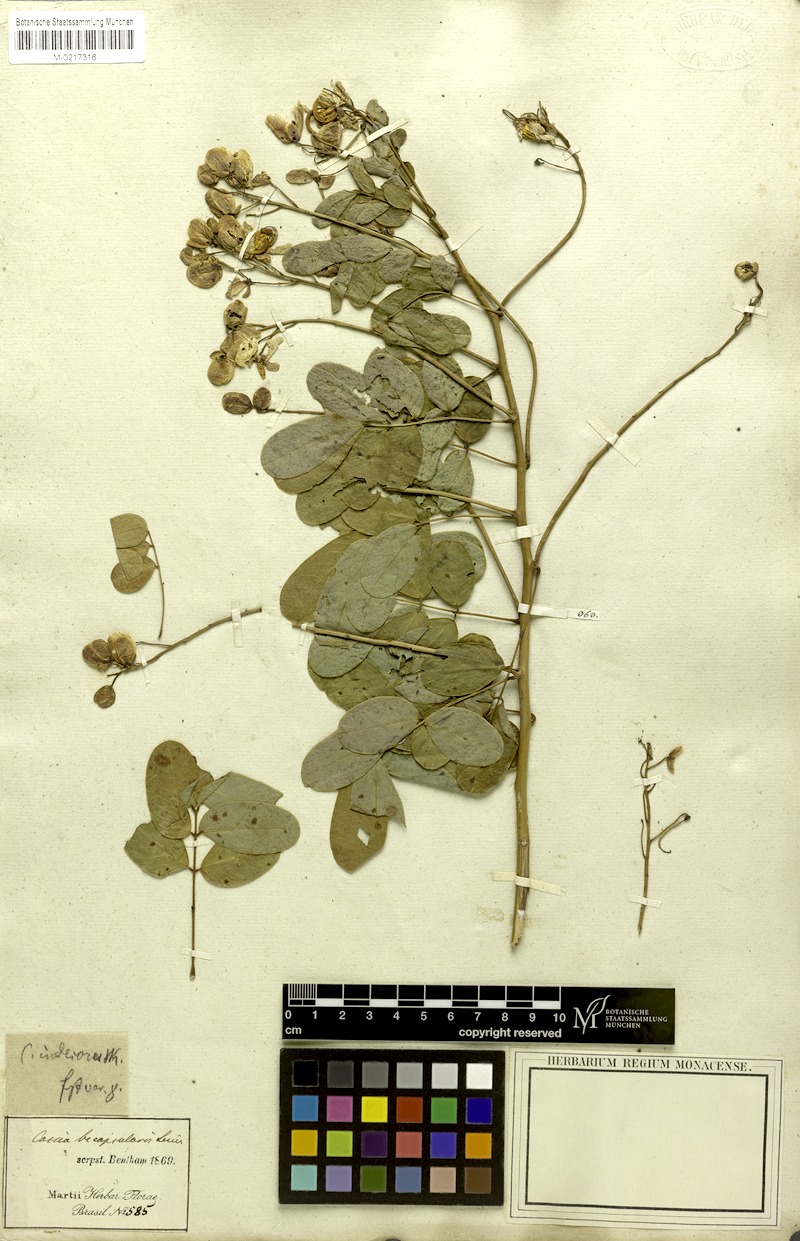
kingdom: Plantae
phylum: Tracheophyta
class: Magnoliopsida
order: Fabales
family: Fabaceae
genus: Senna
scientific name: Senna bicapsularis
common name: Christmasbush
